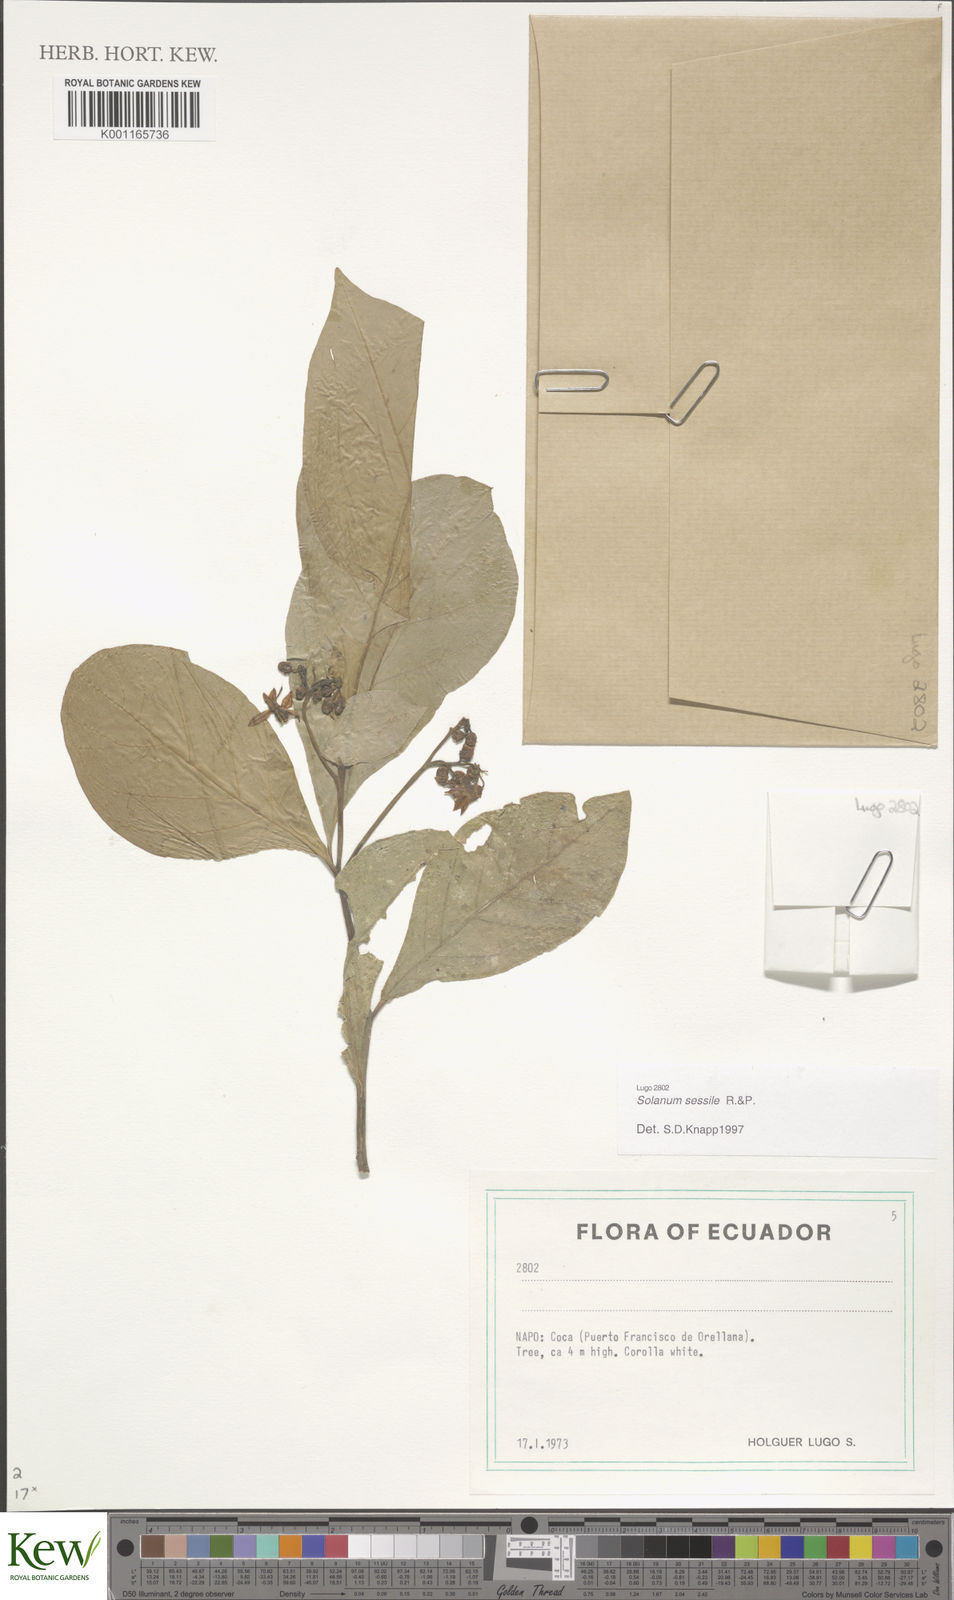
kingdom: Plantae
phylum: Tracheophyta
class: Magnoliopsida
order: Solanales
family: Solanaceae
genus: Solanum
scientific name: Solanum sessile
